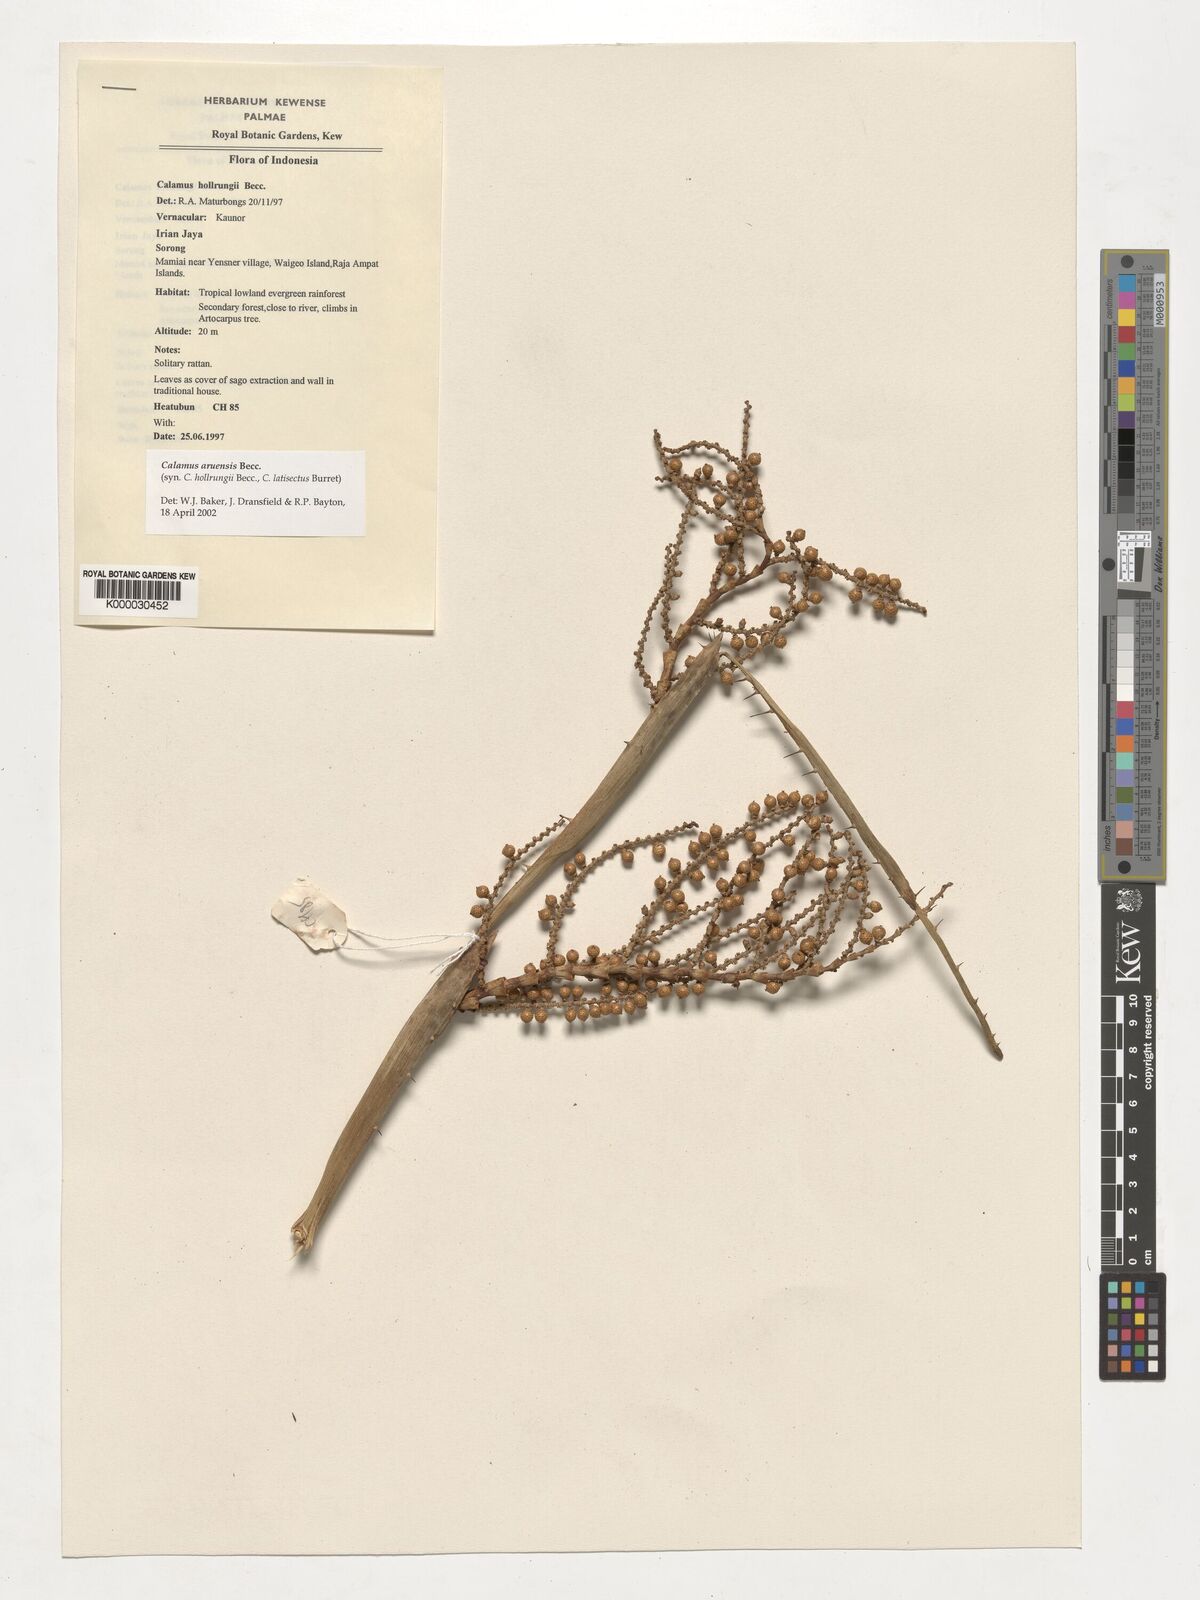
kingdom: Plantae
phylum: Tracheophyta
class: Liliopsida
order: Arecales
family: Arecaceae
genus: Calamus
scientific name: Calamus aruensis
